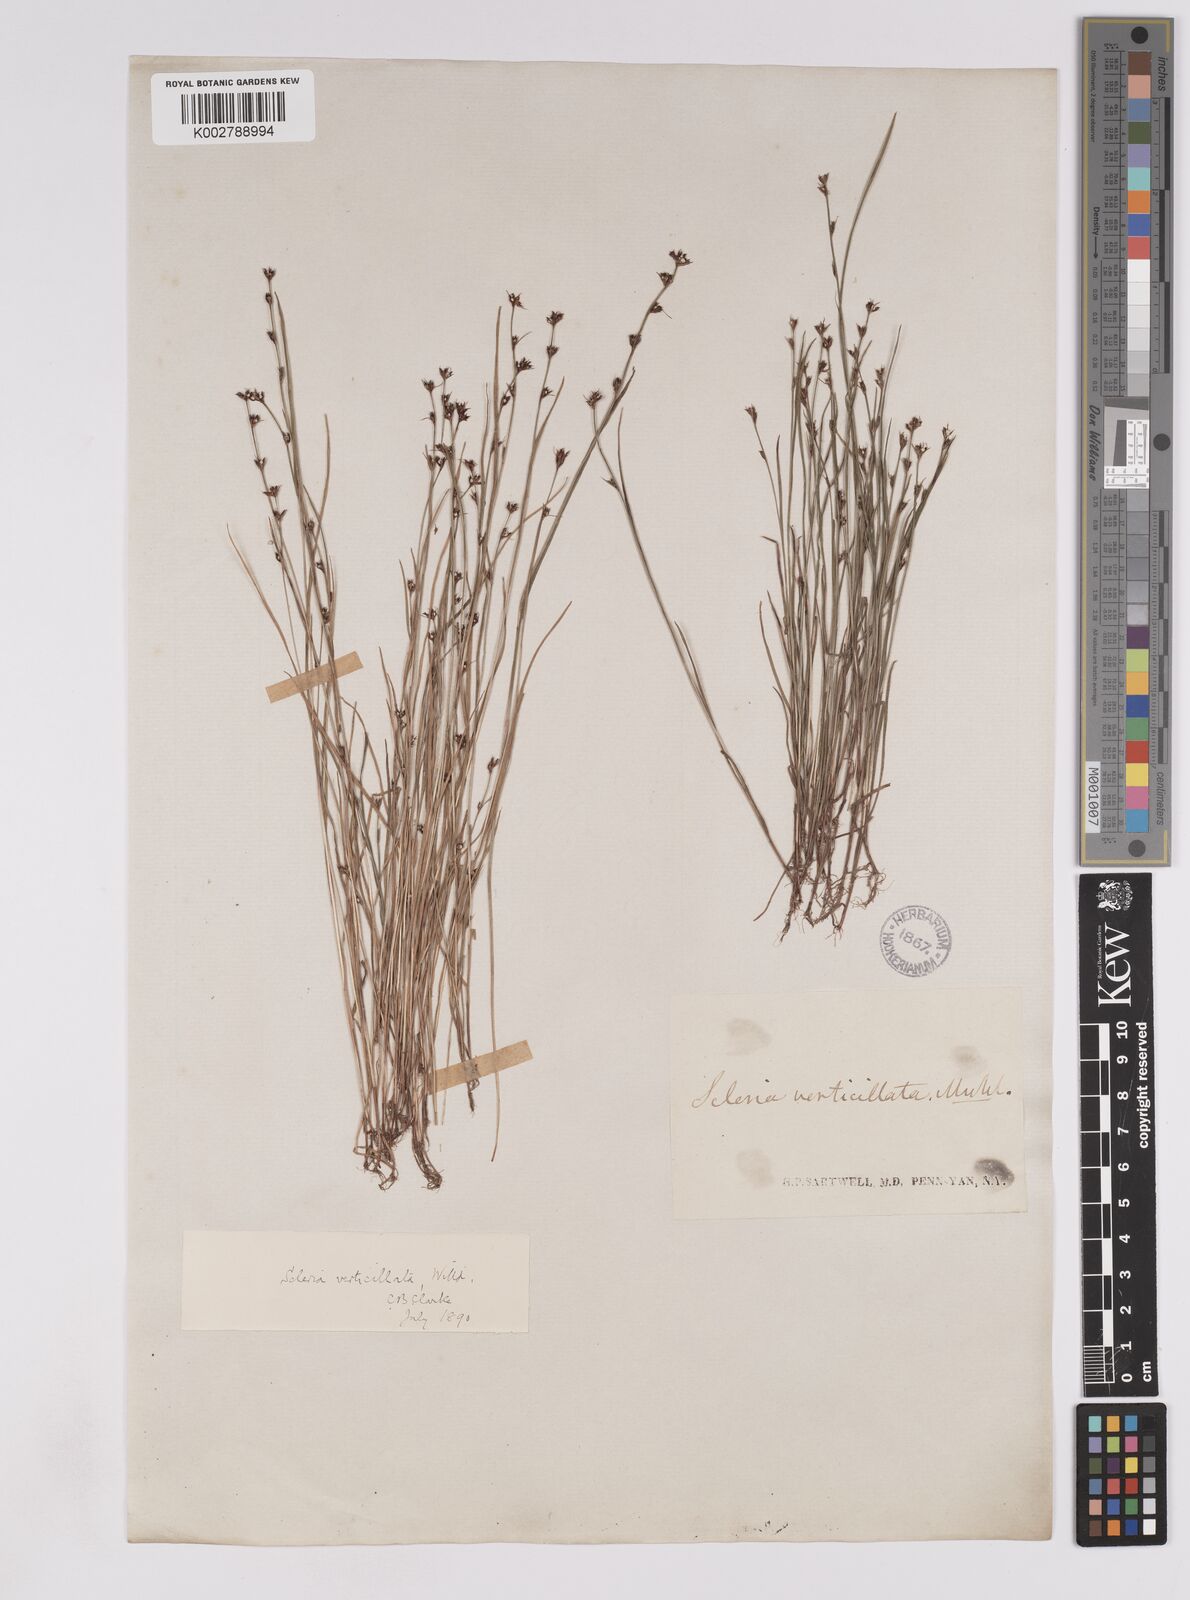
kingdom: Plantae
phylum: Tracheophyta
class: Liliopsida
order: Poales
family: Cyperaceae
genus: Scleria
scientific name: Scleria verticillata
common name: Low nutrush
